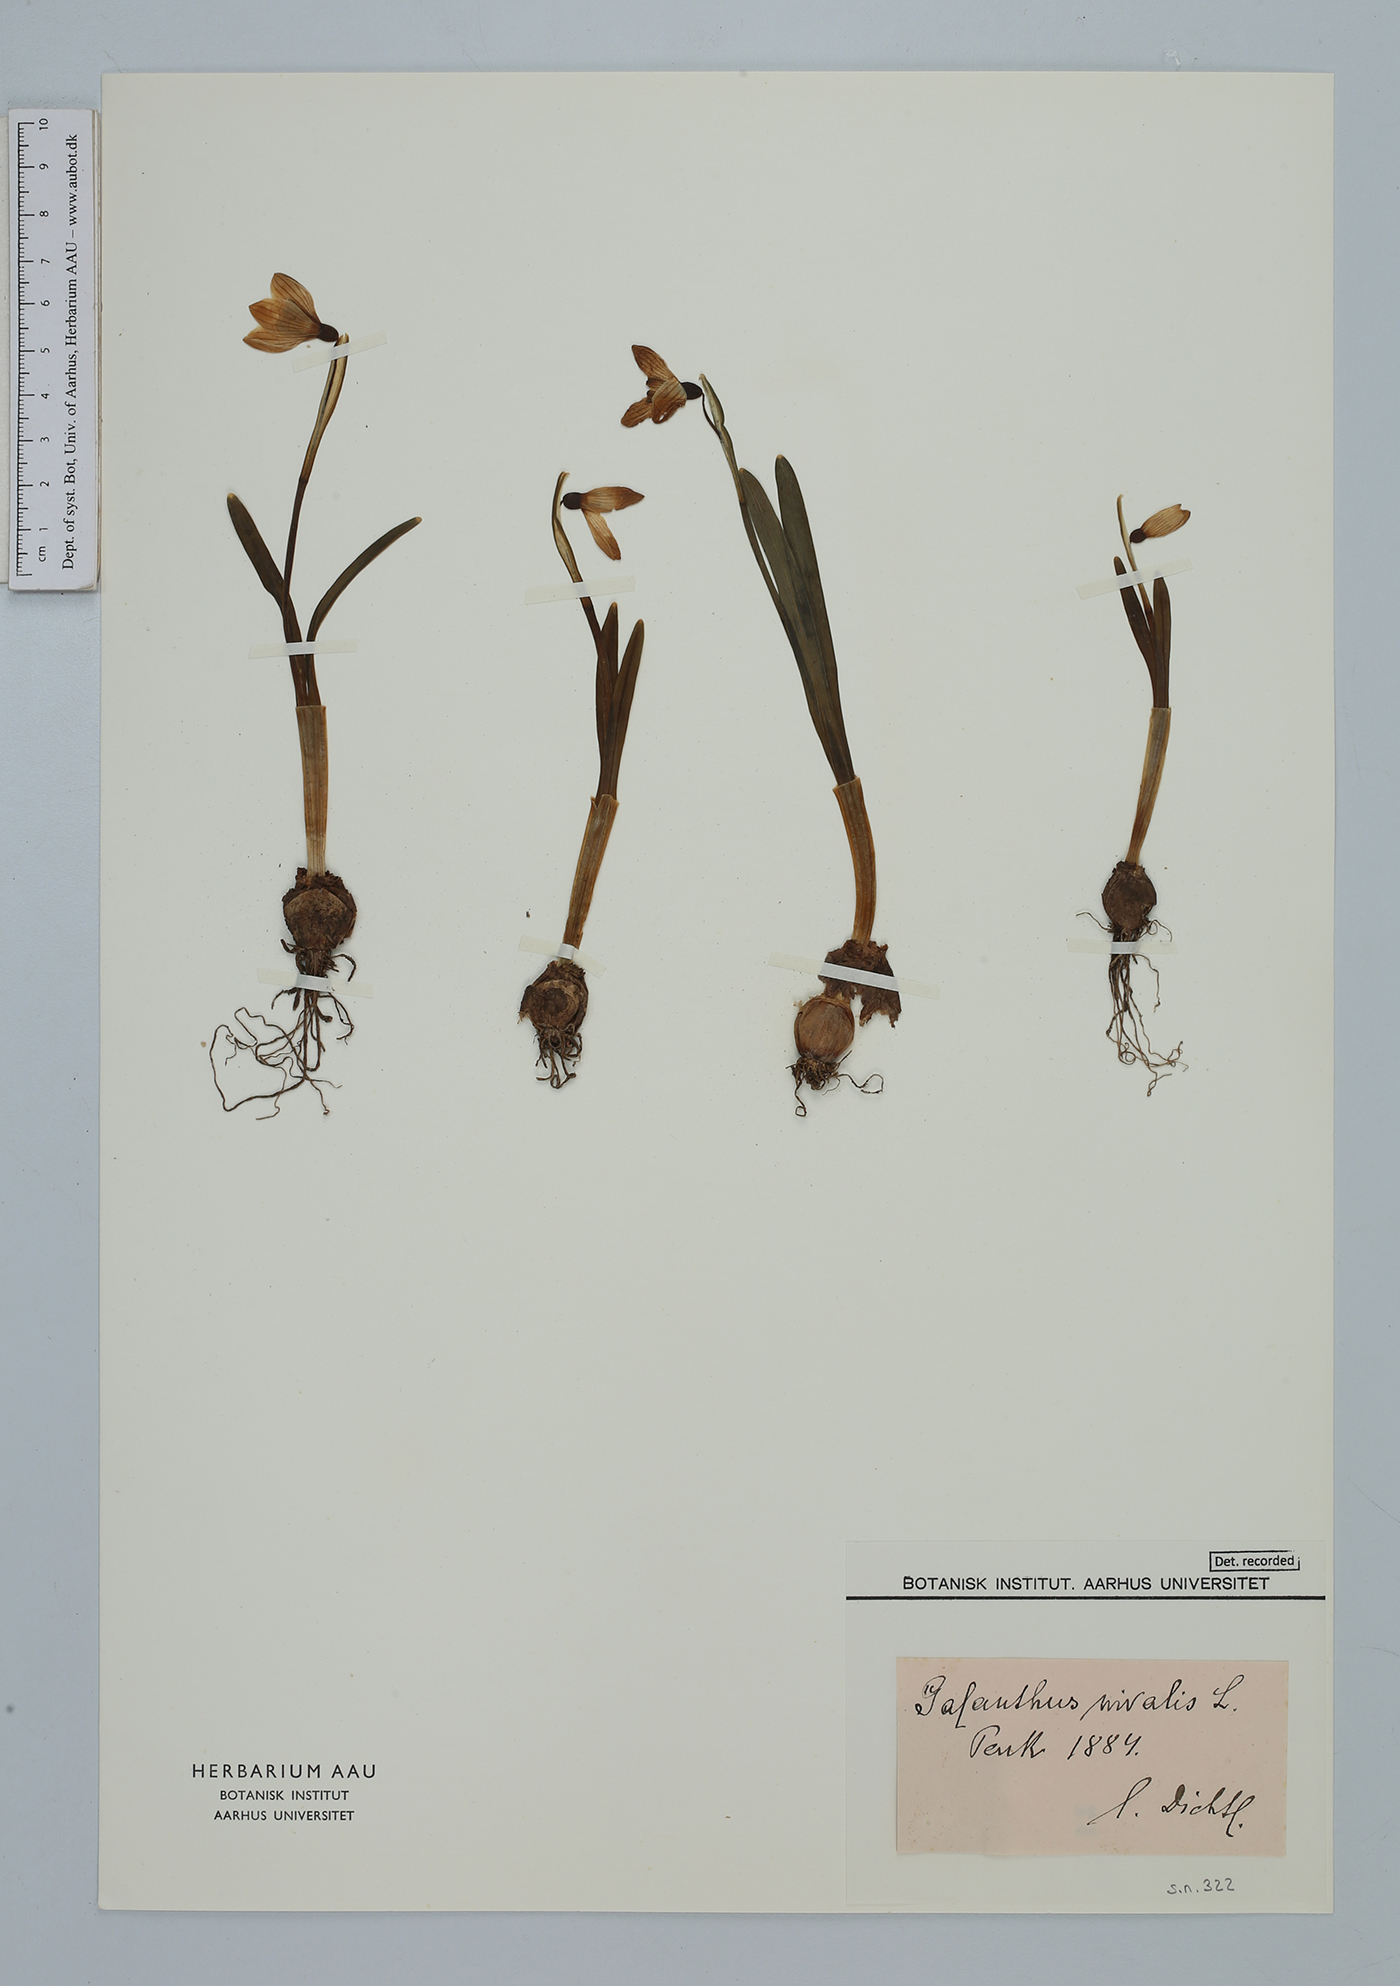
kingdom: Plantae
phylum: Tracheophyta
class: Liliopsida
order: Asparagales
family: Amaryllidaceae
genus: Galanthus
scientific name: Galanthus nivalis
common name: Snowdrop
